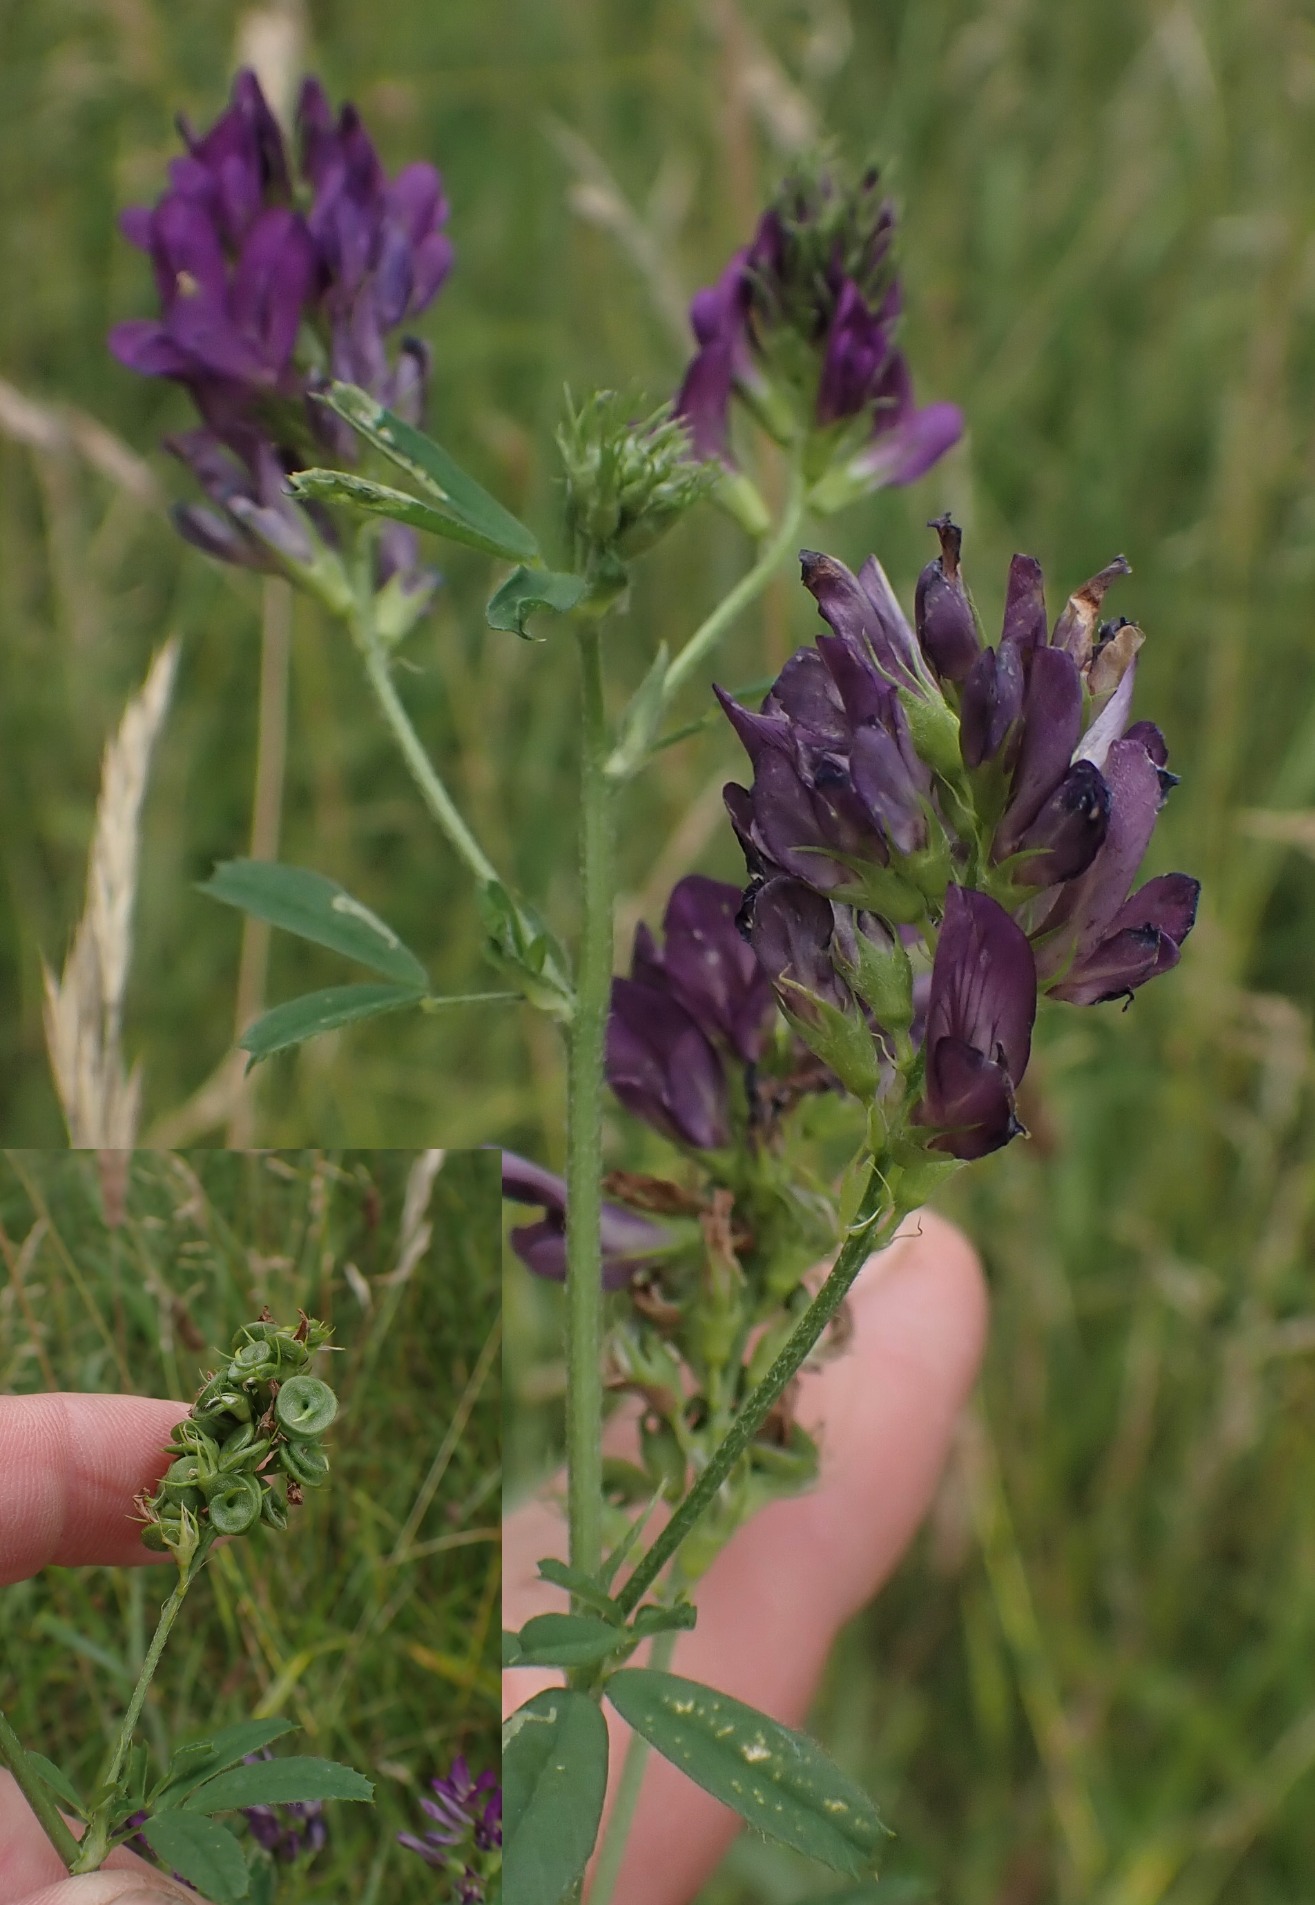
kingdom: Plantae
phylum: Tracheophyta
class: Magnoliopsida
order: Fabales
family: Fabaceae
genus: Medicago
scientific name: Medicago sativa
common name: Lucerne
